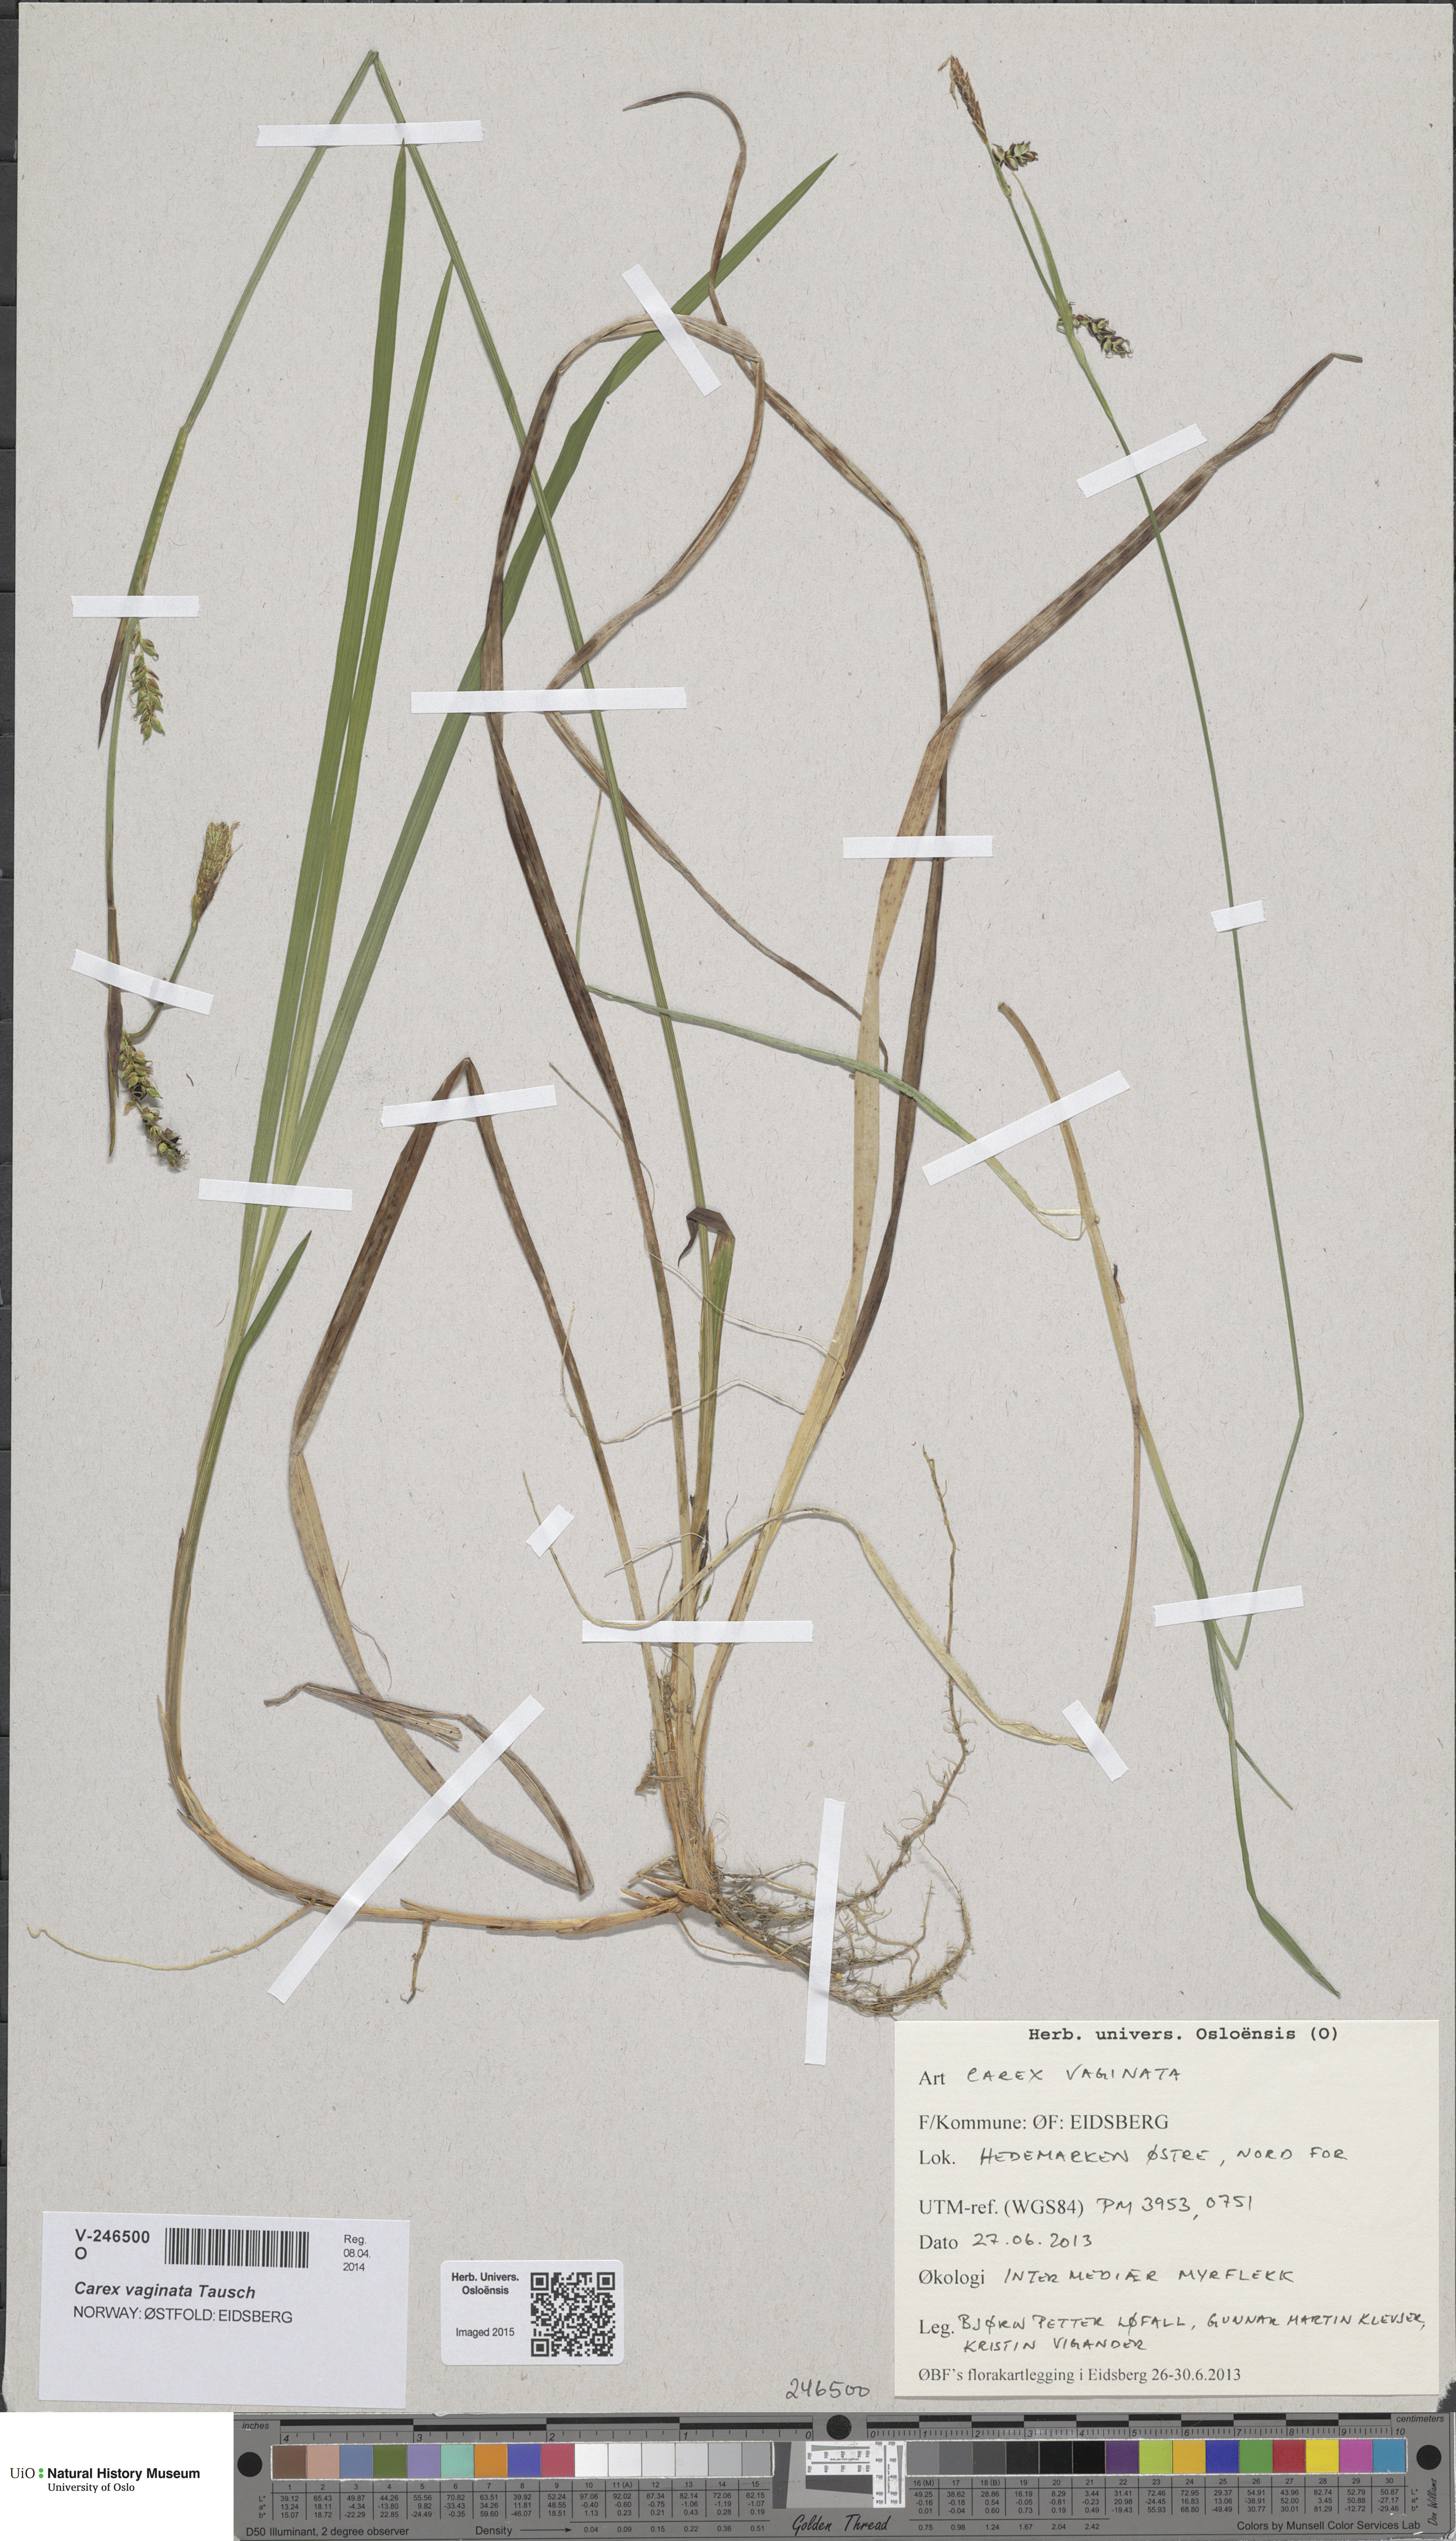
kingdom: Plantae
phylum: Tracheophyta
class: Liliopsida
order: Poales
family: Cyperaceae
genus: Carex
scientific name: Carex vaginata
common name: Sheathed sedge
